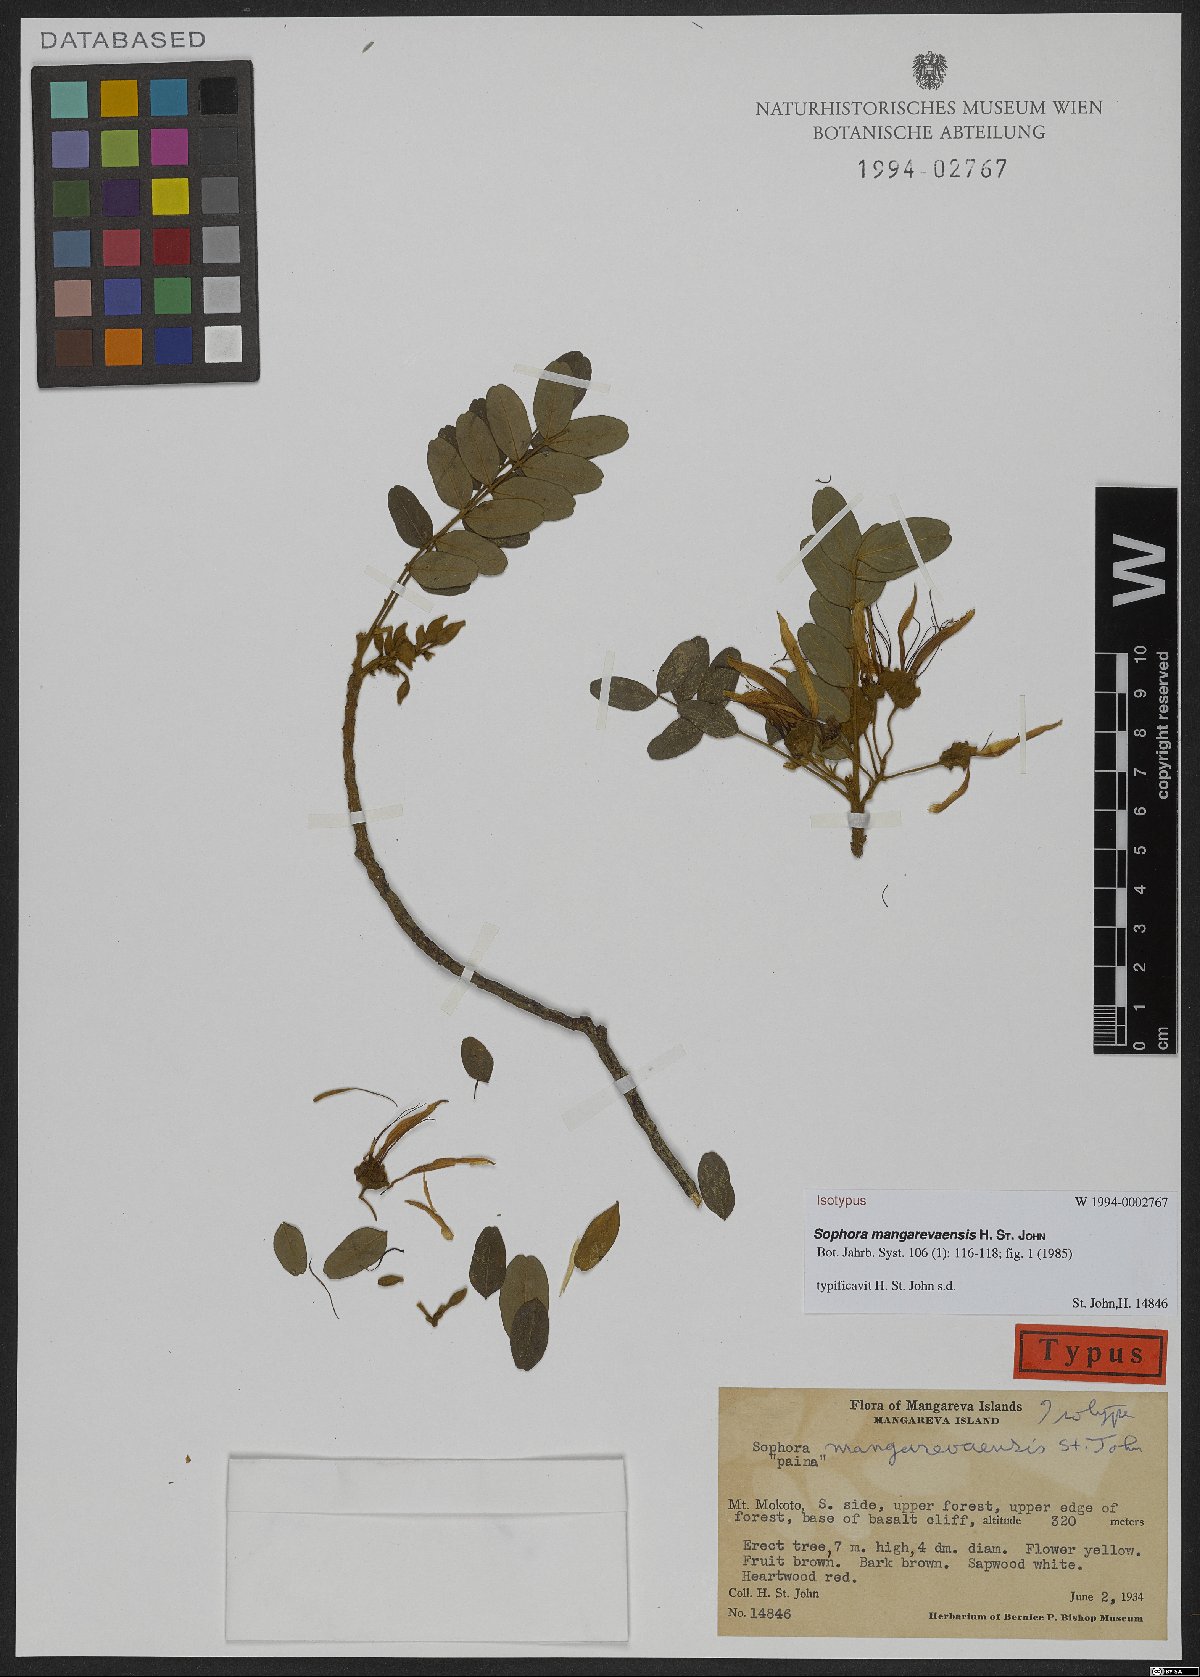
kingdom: Plantae
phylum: Tracheophyta
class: Magnoliopsida
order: Fabales
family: Fabaceae
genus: Sophora
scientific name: Sophora mangarevaensis
